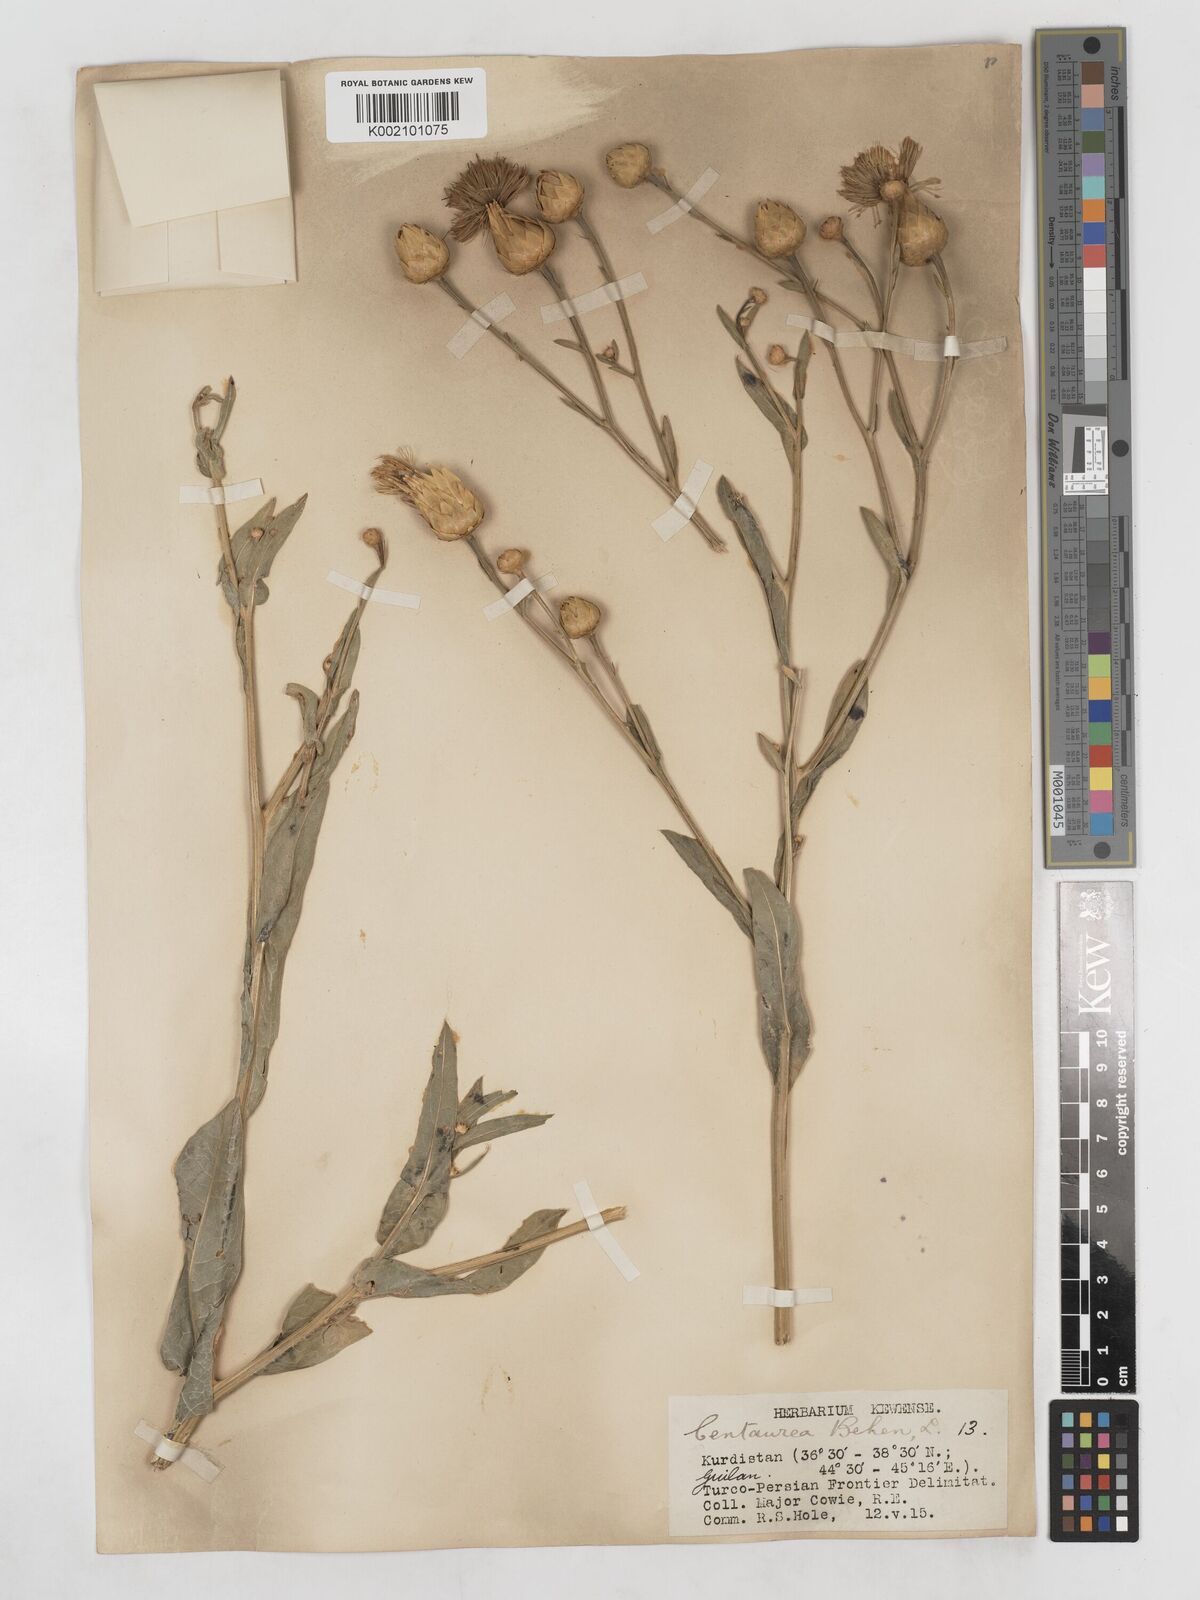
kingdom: Plantae
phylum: Tracheophyta
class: Magnoliopsida
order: Asterales
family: Asteraceae
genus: Centaurea
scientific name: Centaurea behen
